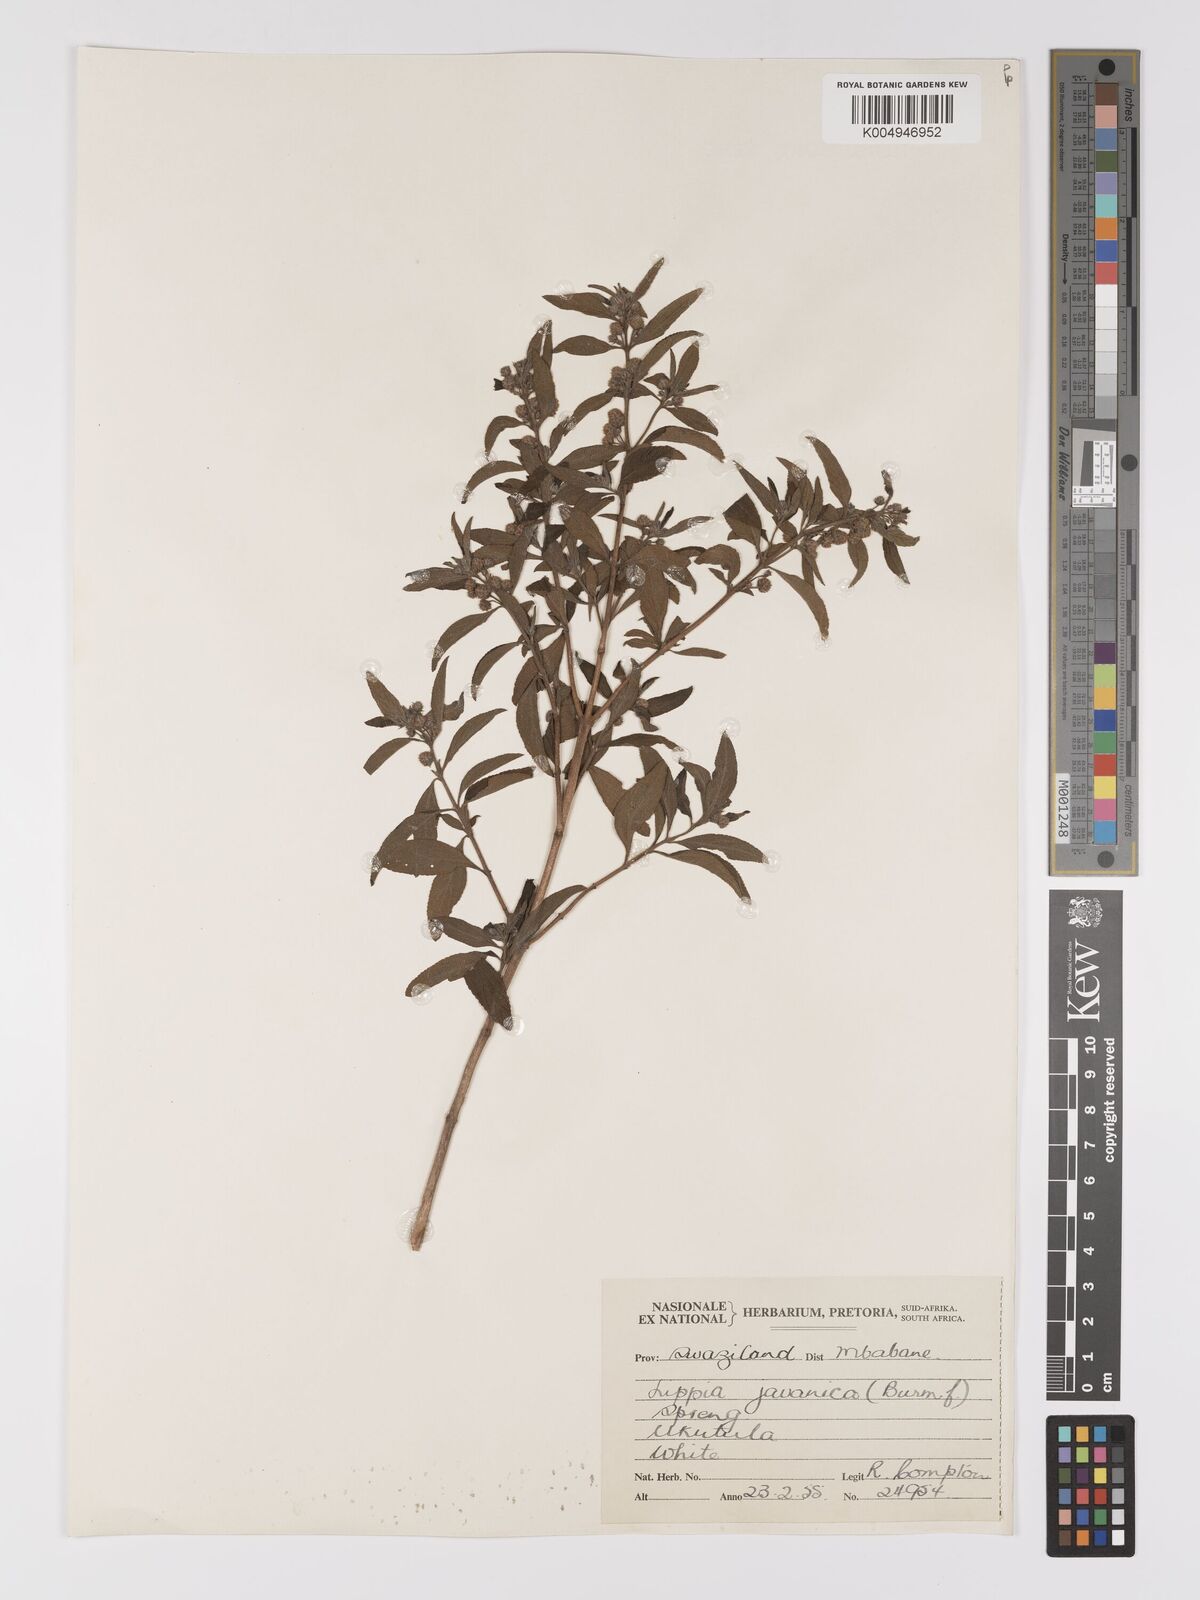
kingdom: Plantae
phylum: Tracheophyta
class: Magnoliopsida
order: Lamiales
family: Verbenaceae
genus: Lippia
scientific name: Lippia javanica
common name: Lemonbush
